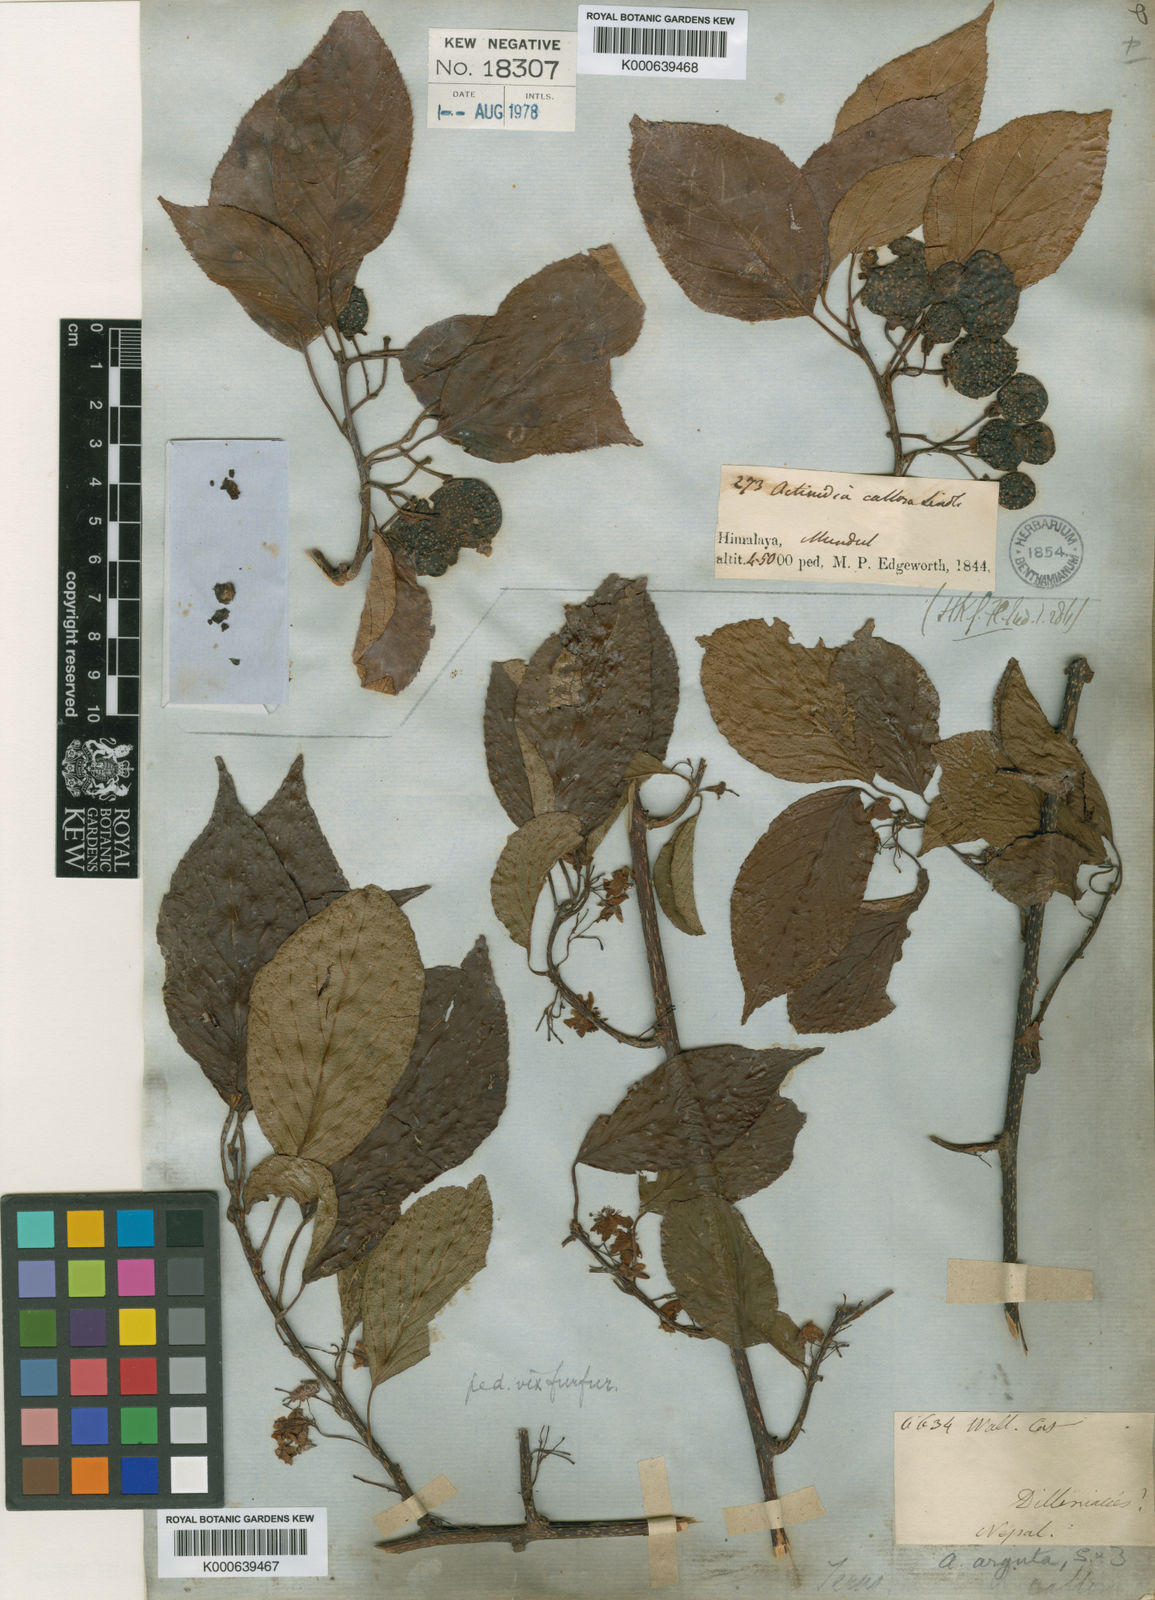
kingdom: Plantae
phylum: Tracheophyta
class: Magnoliopsida
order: Ericales
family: Actinidiaceae
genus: Actinidia
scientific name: Actinidia callosa
